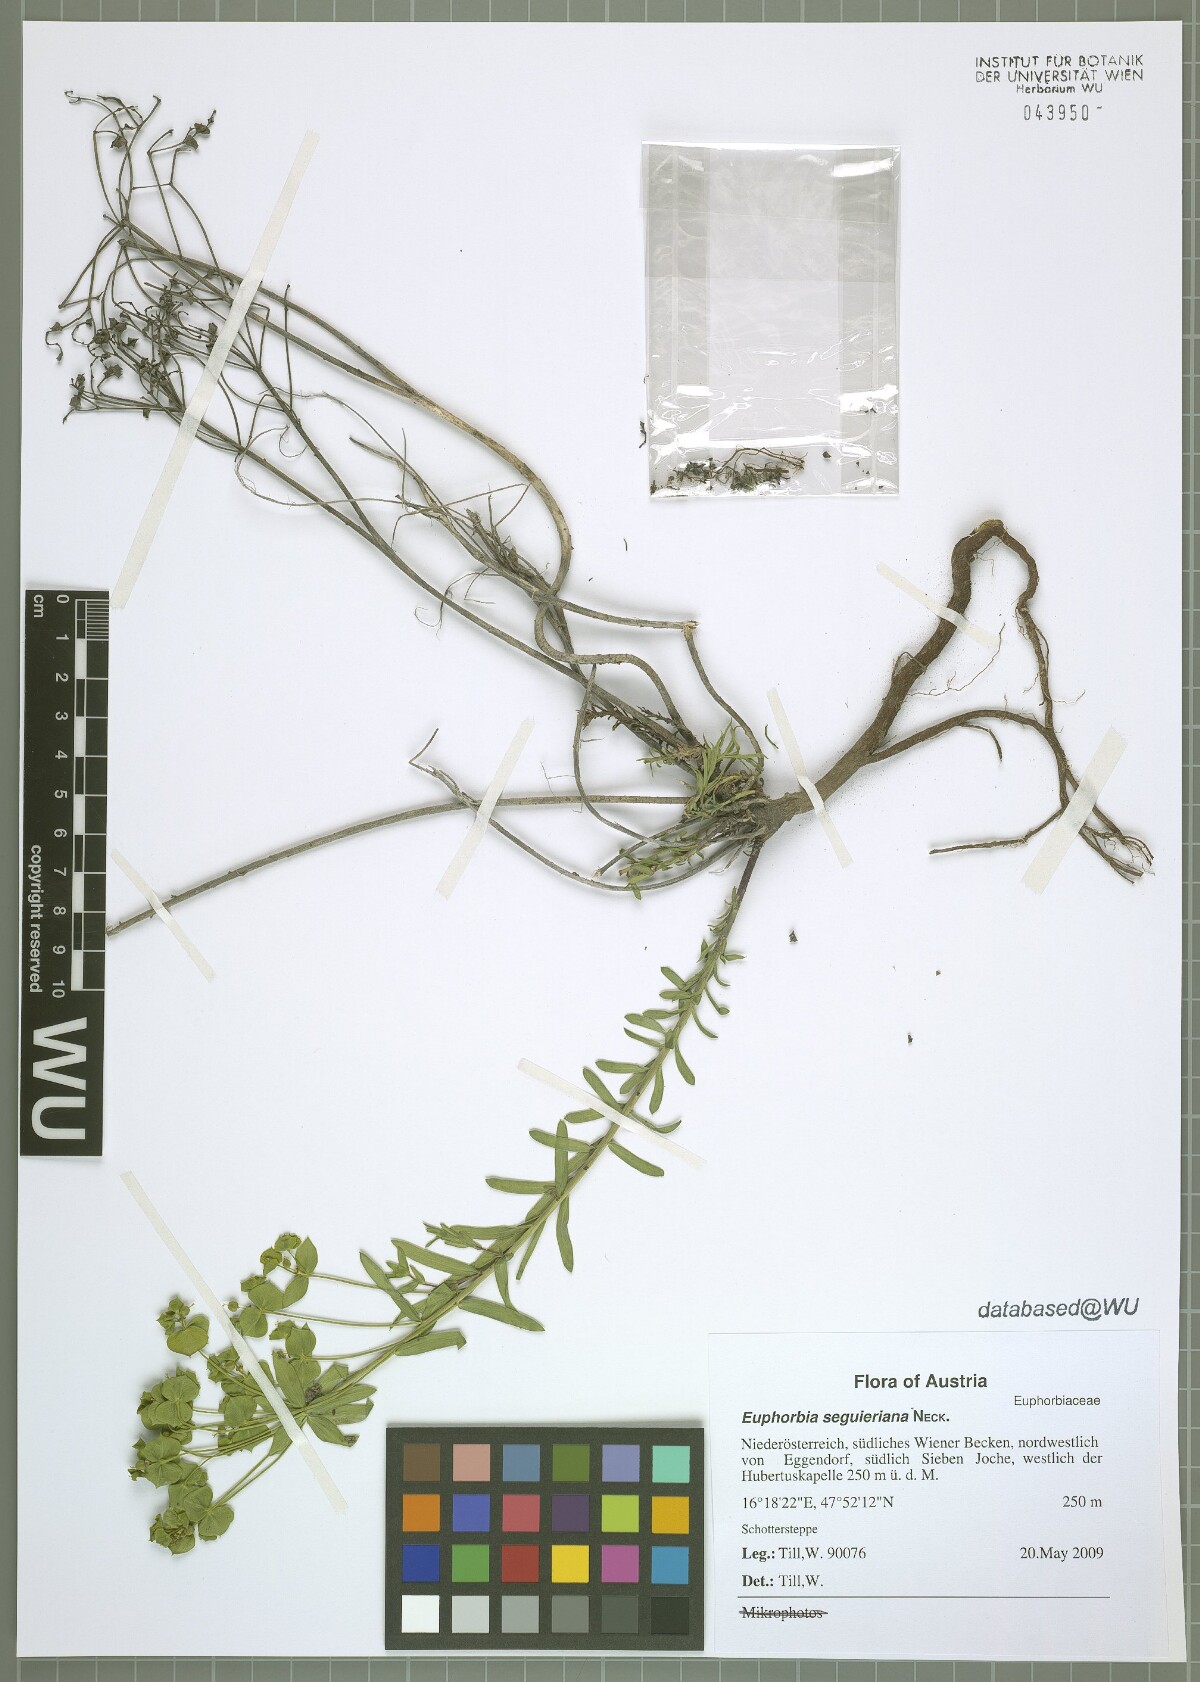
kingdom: Plantae
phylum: Tracheophyta
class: Magnoliopsida
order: Malpighiales
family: Euphorbiaceae
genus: Euphorbia
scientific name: Euphorbia seguieriana
